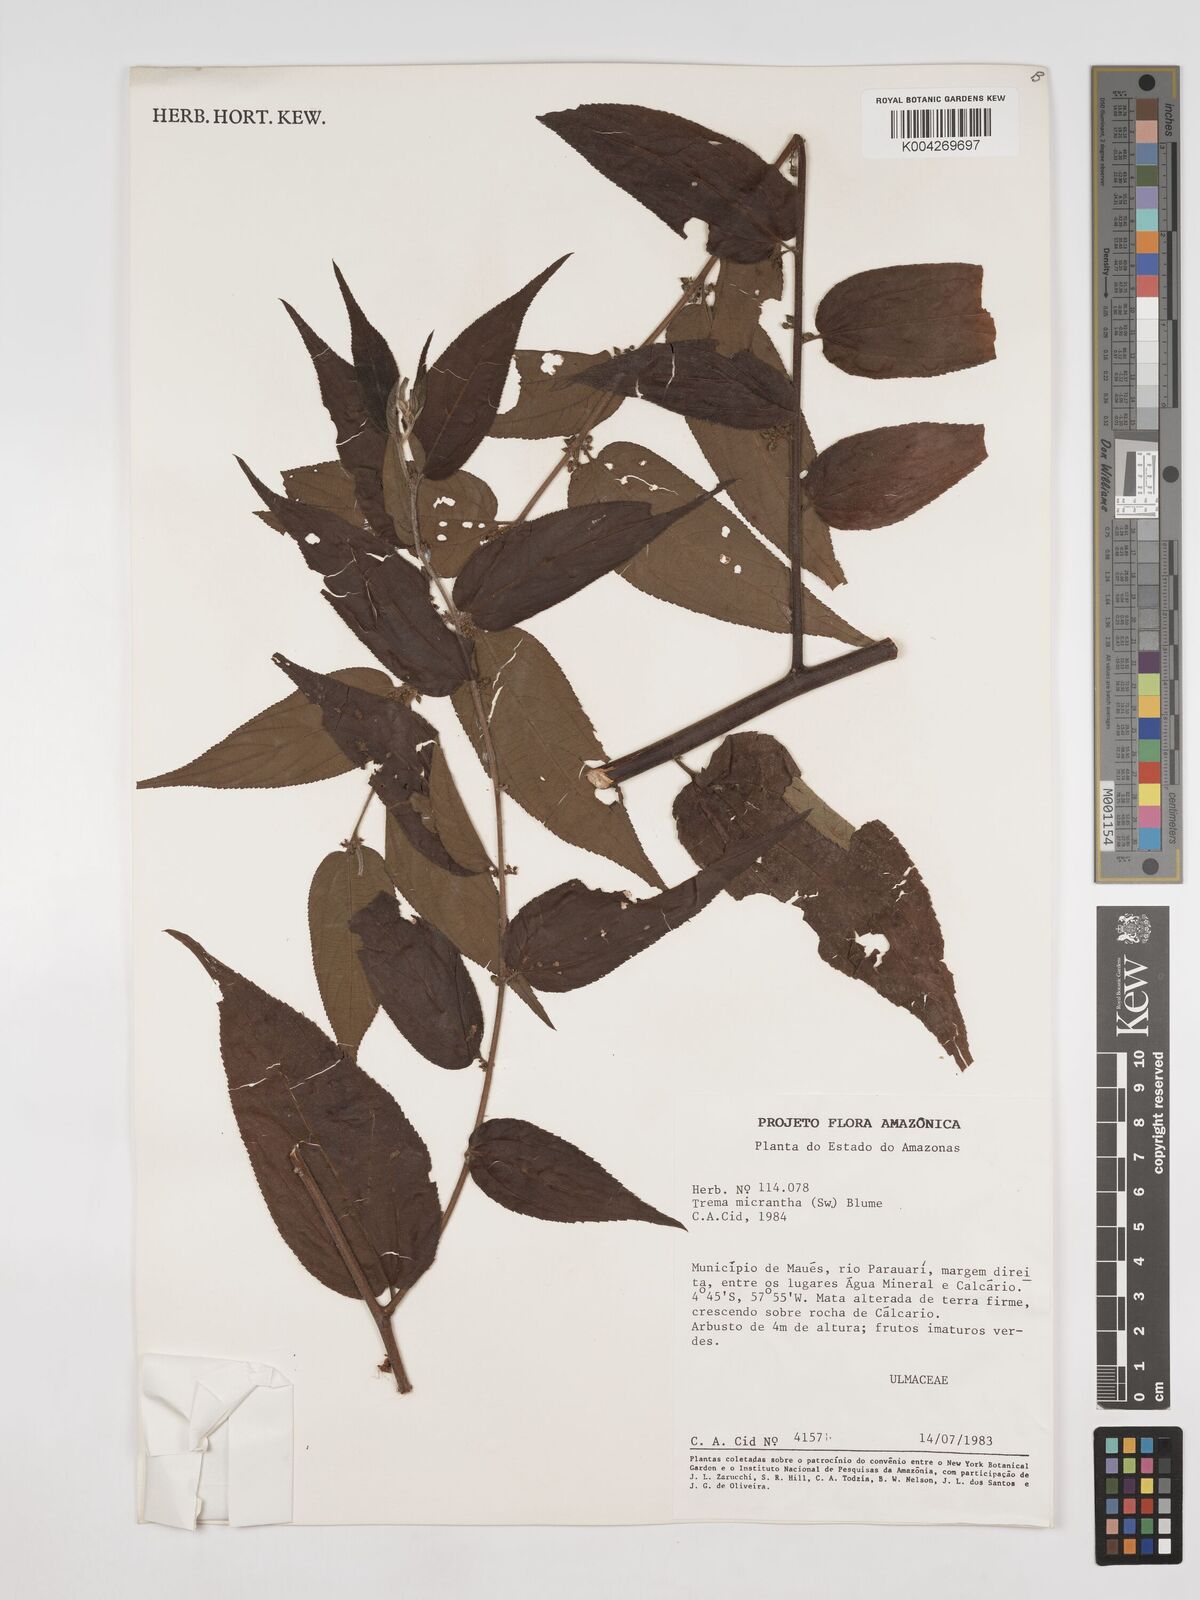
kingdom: Plantae
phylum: Tracheophyta
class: Magnoliopsida
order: Rosales
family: Cannabaceae
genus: Trema
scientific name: Trema micranthum
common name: Jamaican nettletree
